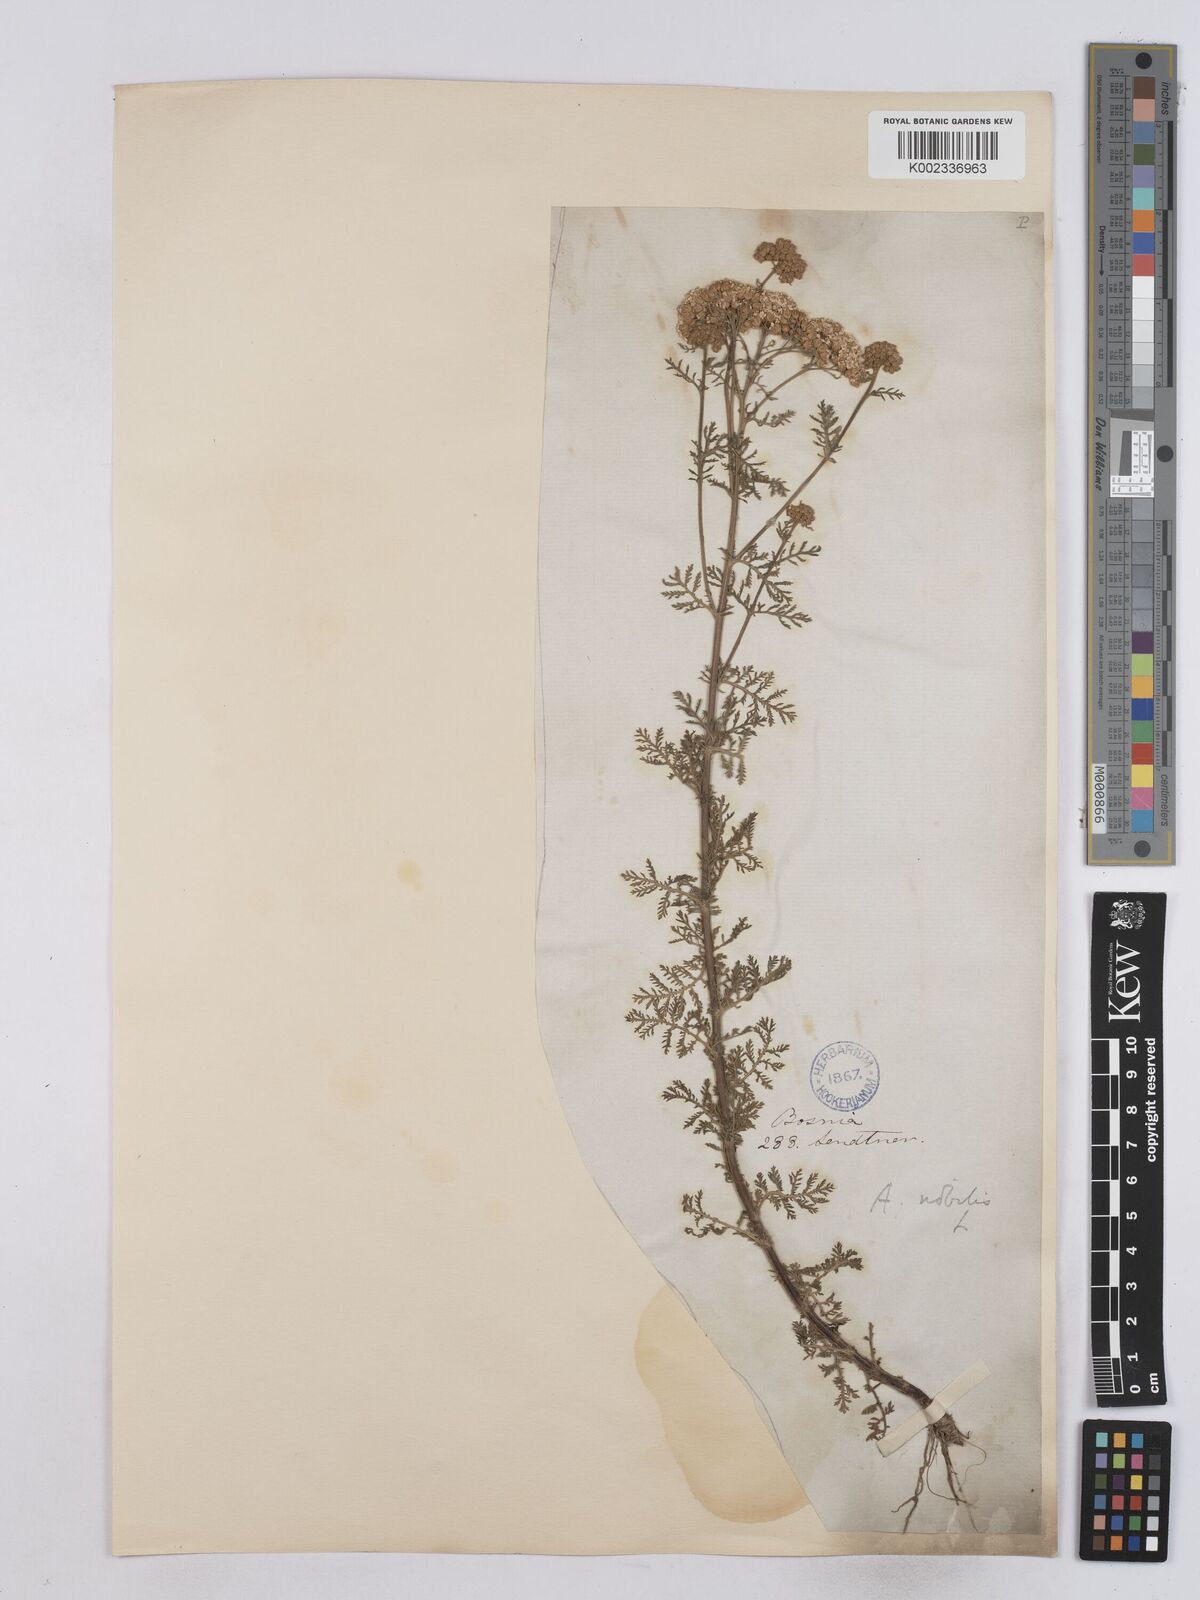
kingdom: Plantae
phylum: Tracheophyta
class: Magnoliopsida
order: Asterales
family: Asteraceae
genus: Achillea
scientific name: Achillea nobilis
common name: Noble yarrow
